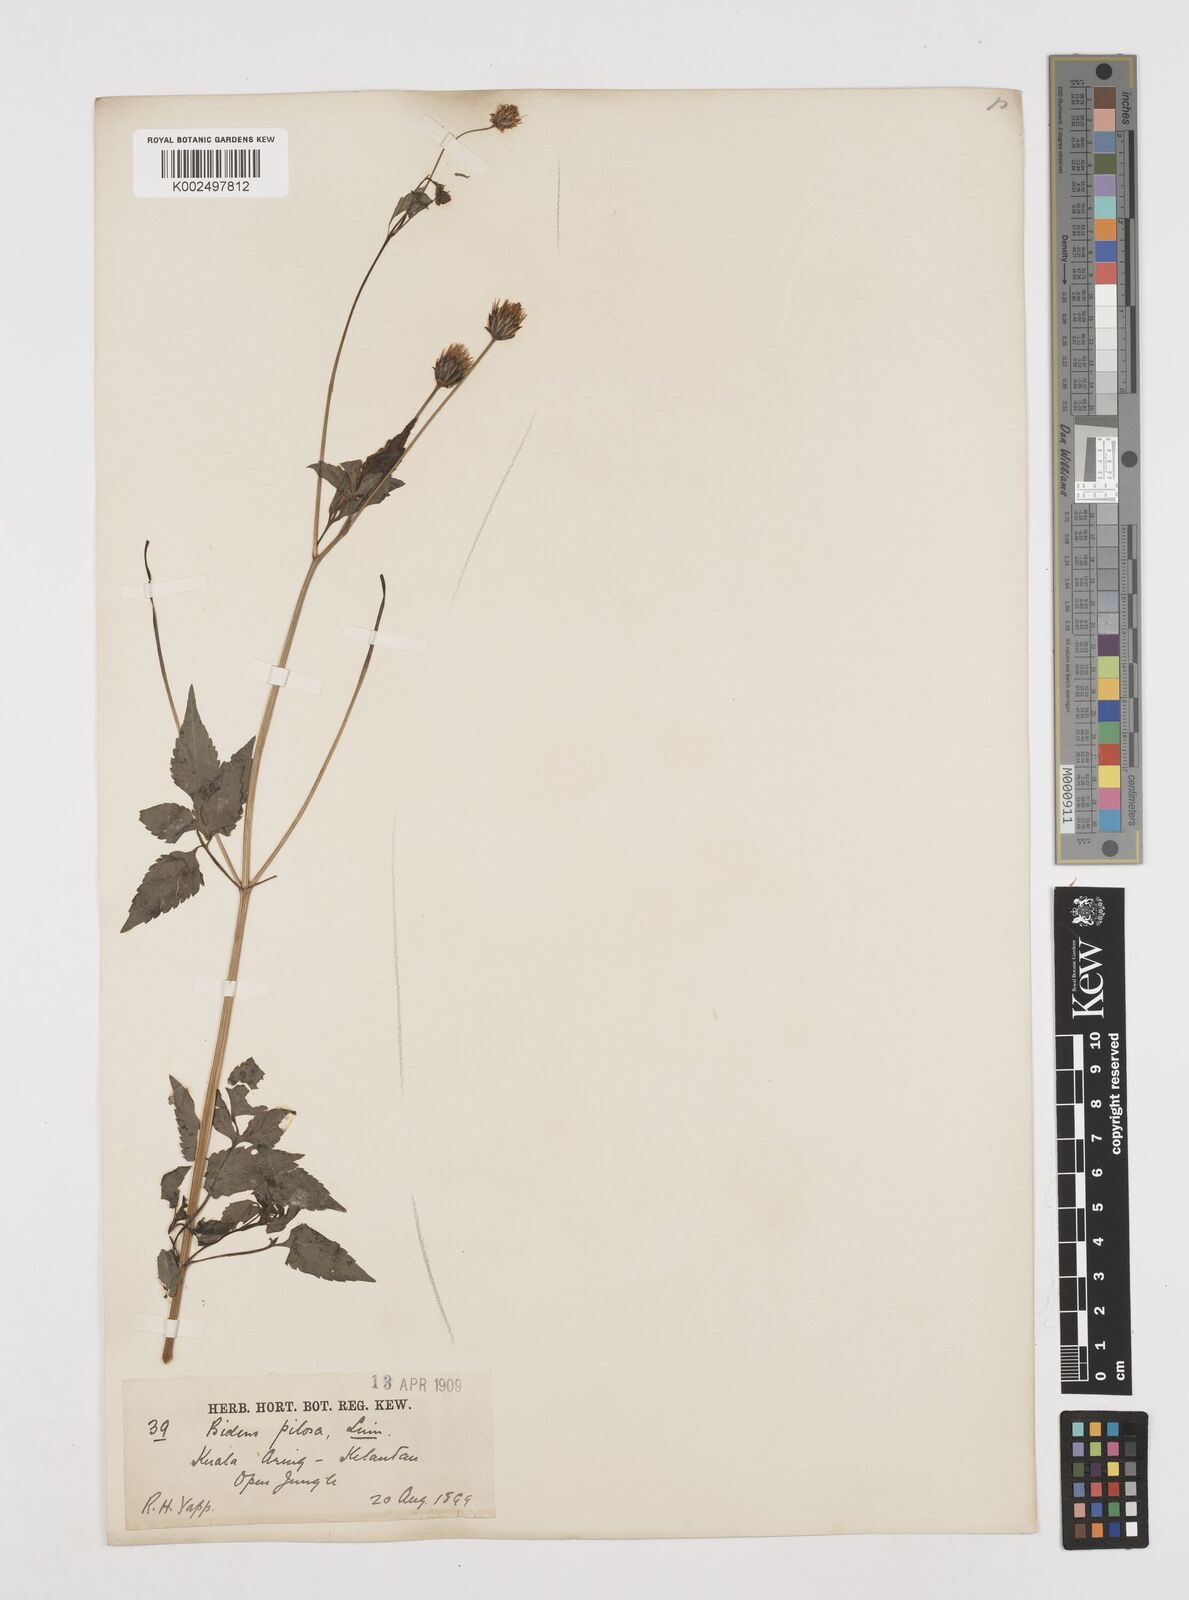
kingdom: Plantae
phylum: Tracheophyta
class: Magnoliopsida
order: Asterales
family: Asteraceae
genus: Bidens
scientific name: Bidens pilosa
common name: Black-jack
